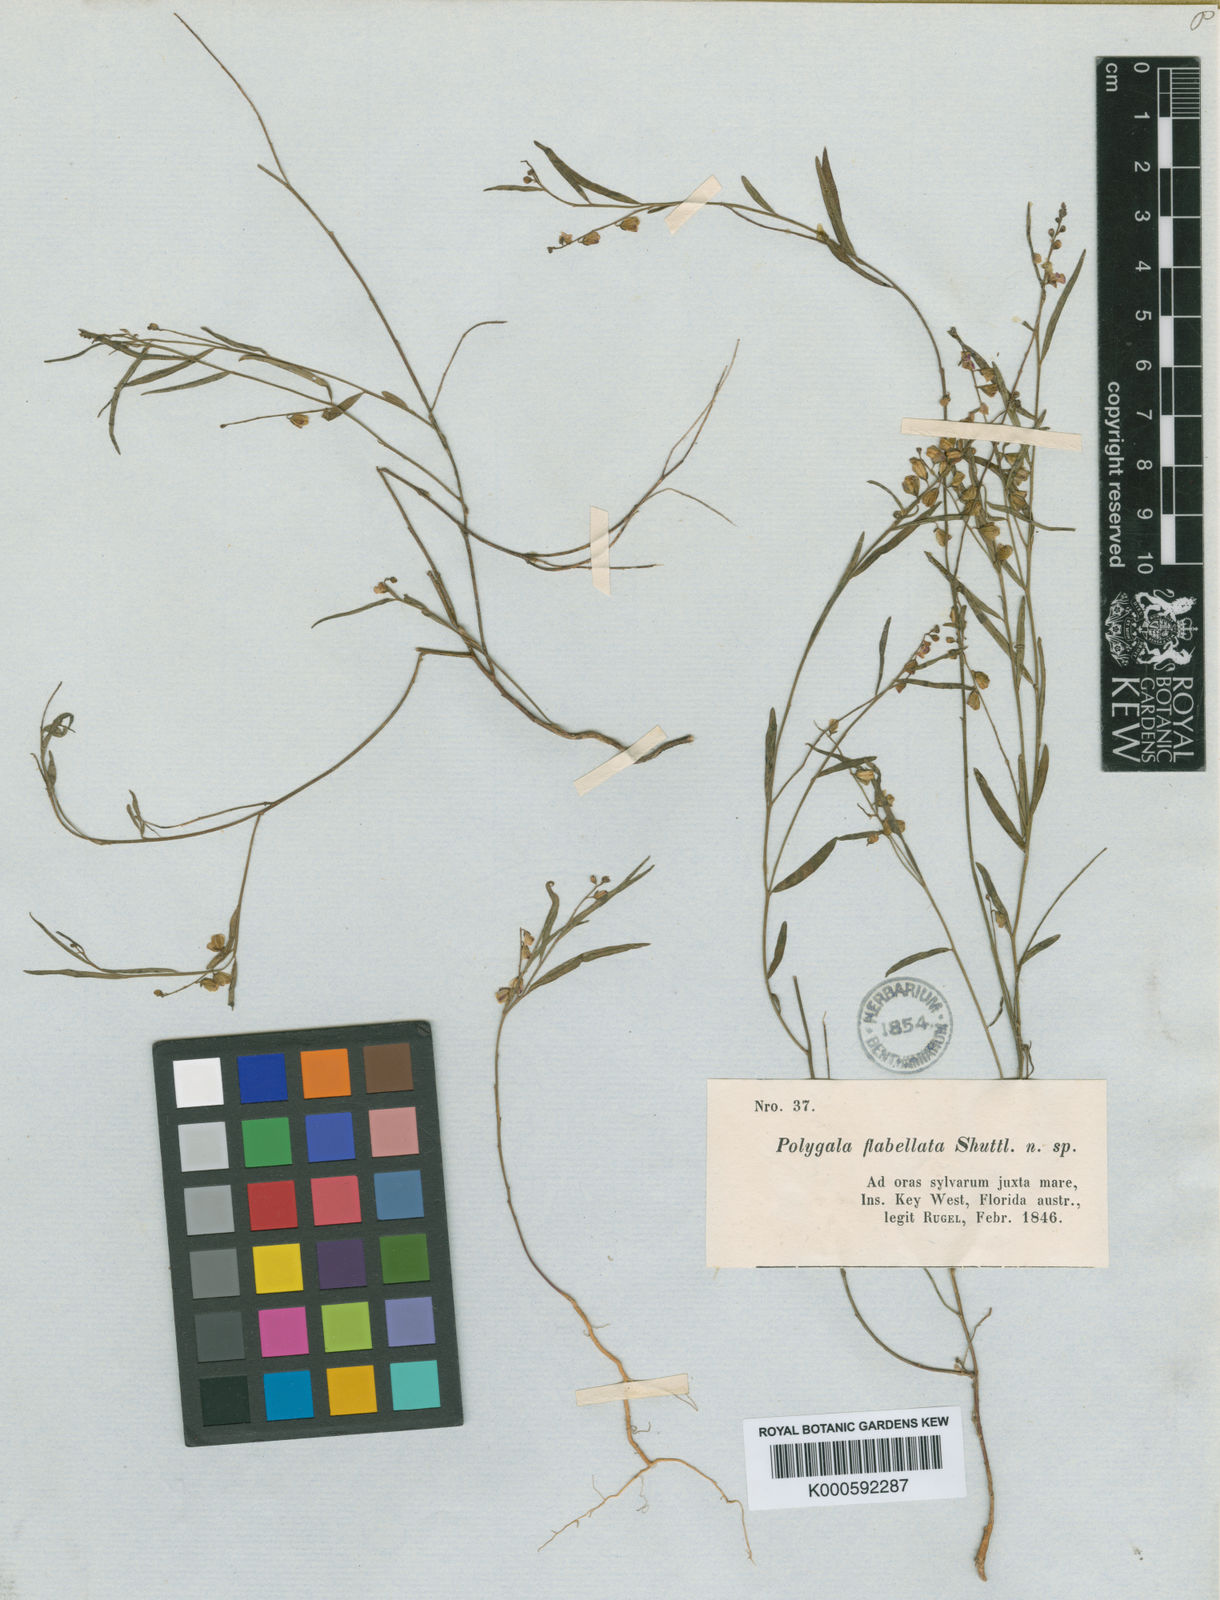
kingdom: Plantae
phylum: Tracheophyta
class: Magnoliopsida
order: Fabales
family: Polygalaceae
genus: Asemeia
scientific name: Asemeia grandiflora
